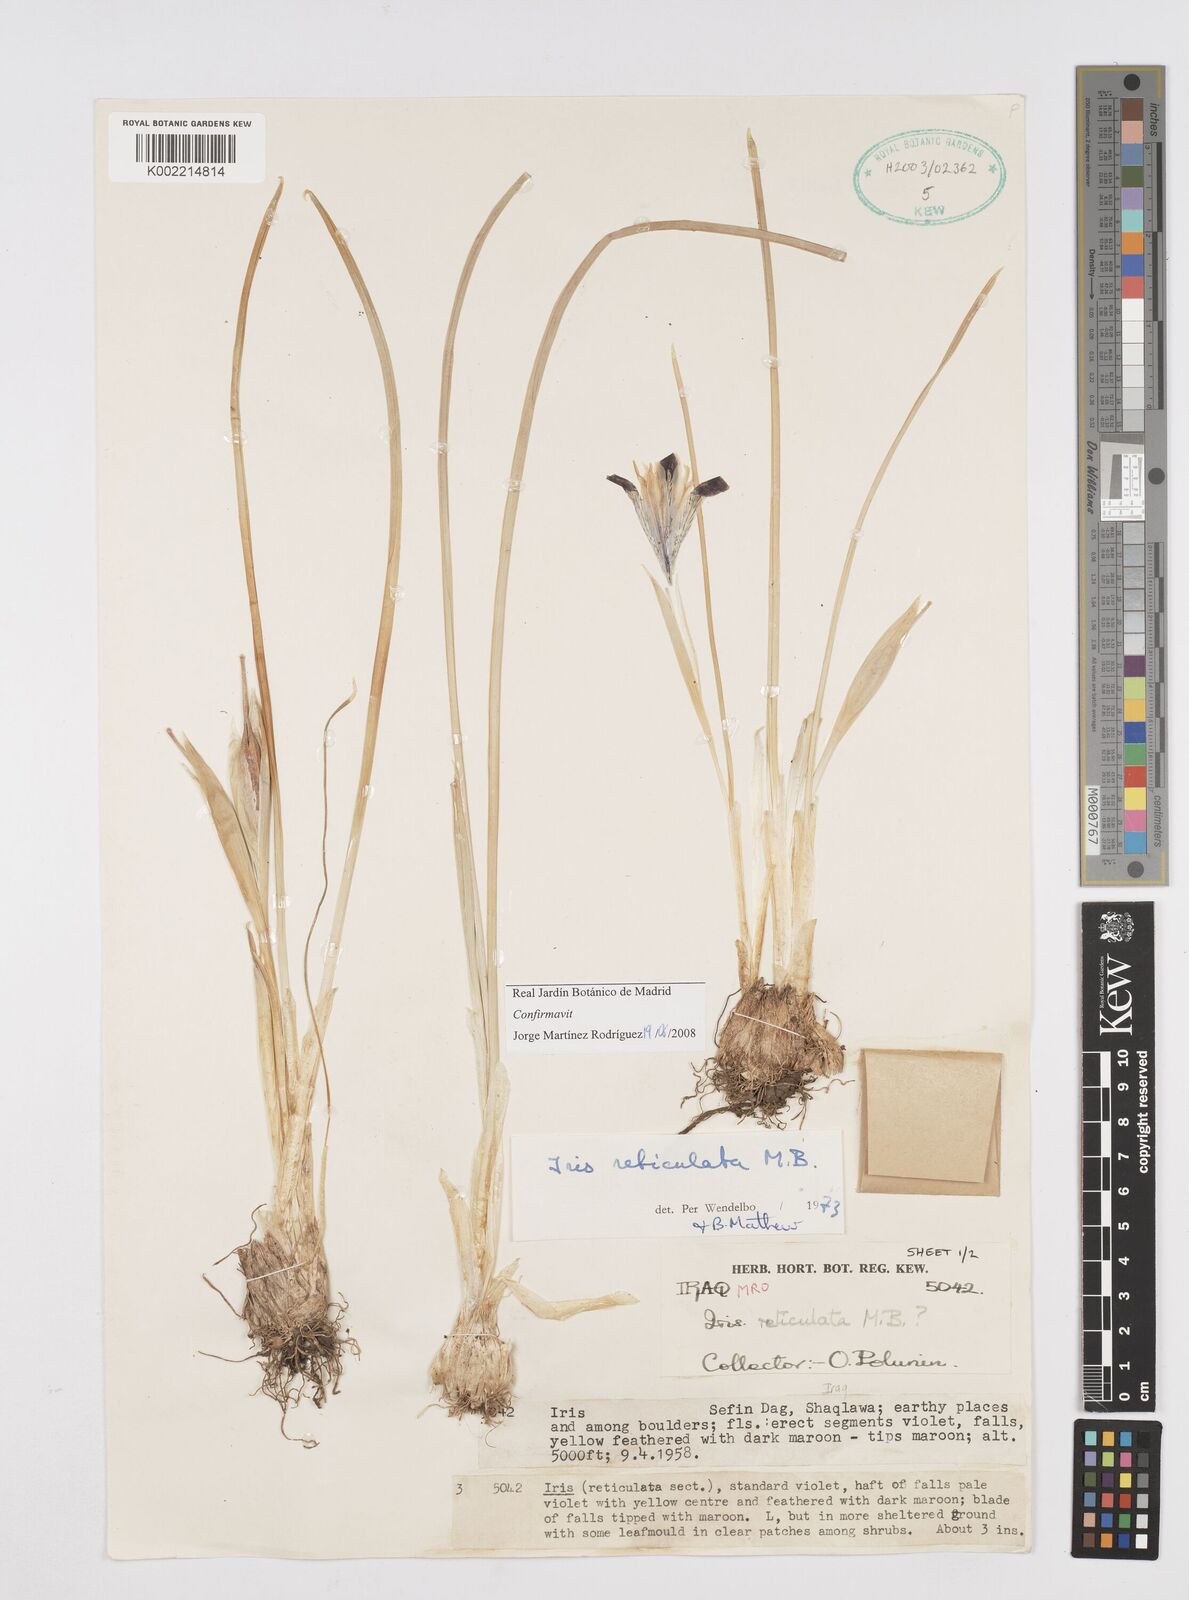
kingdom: Plantae
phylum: Tracheophyta
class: Liliopsida
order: Asparagales
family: Iridaceae
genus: Iris
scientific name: Iris reticulata
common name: Netted iris
